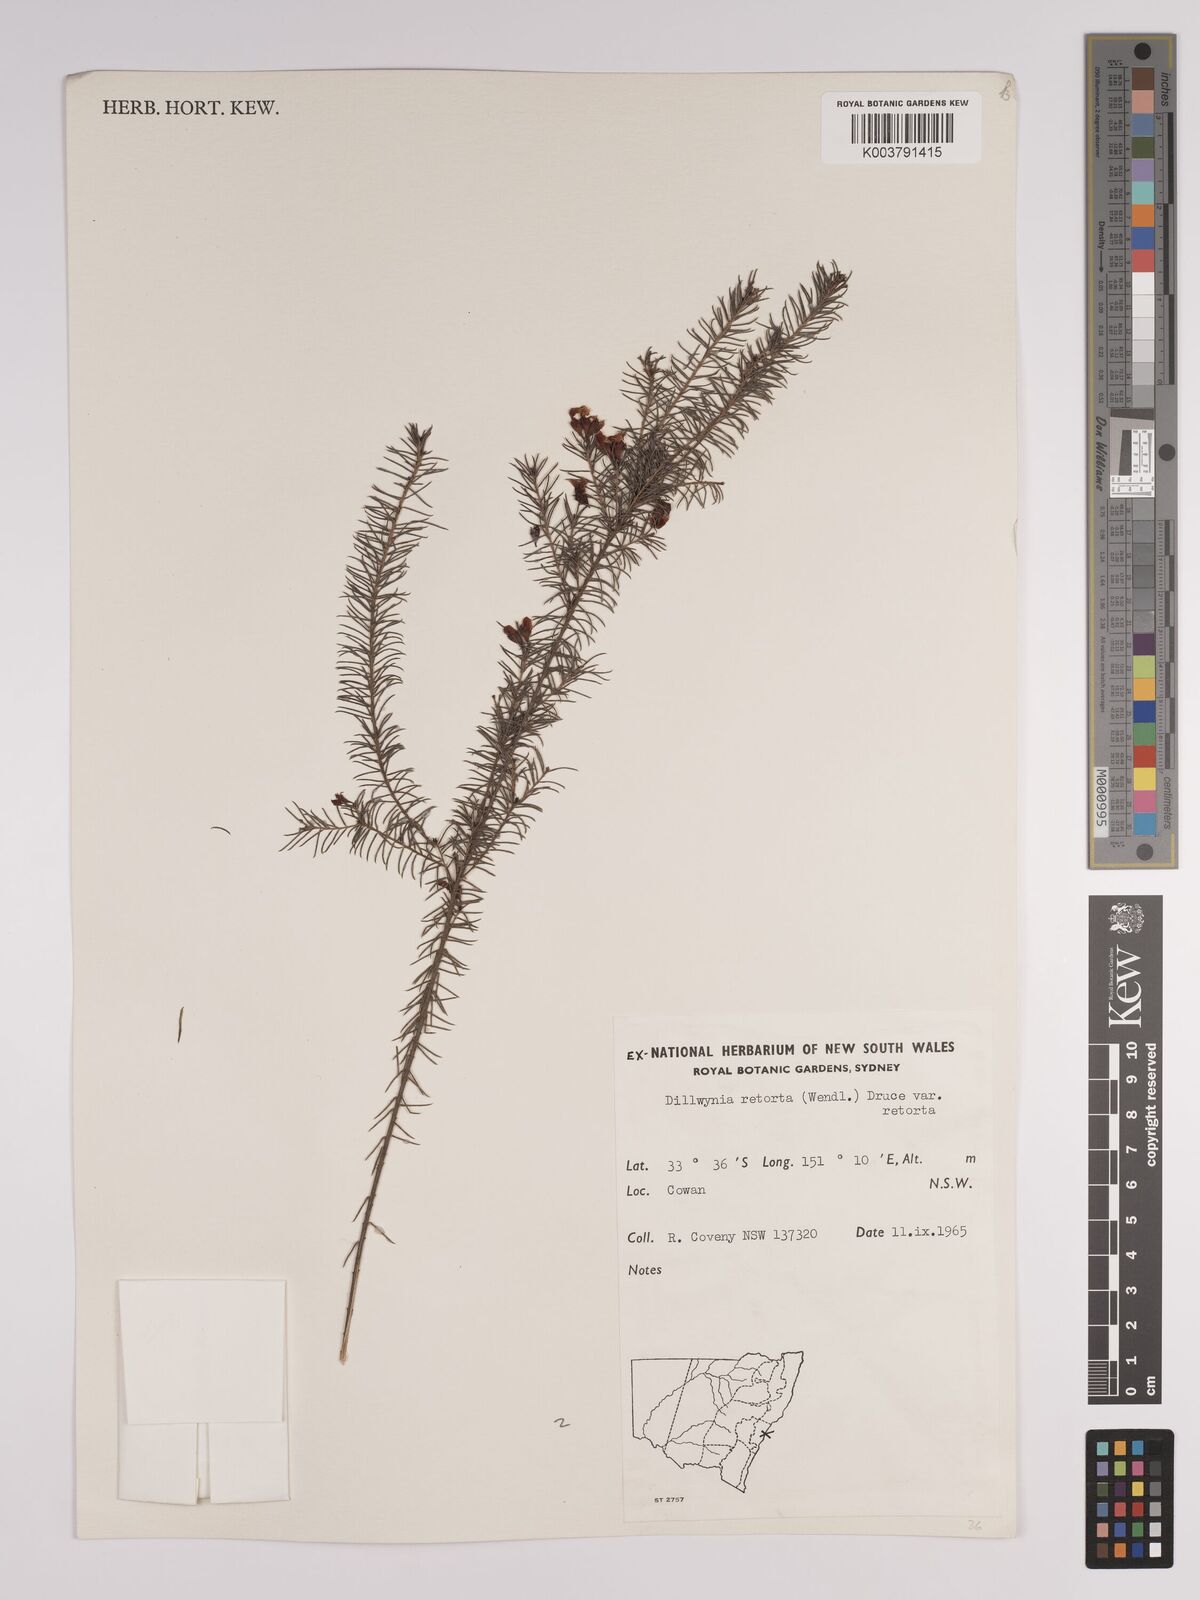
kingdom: Plantae
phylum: Tracheophyta
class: Magnoliopsida
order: Fabales
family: Fabaceae
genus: Dillwynia
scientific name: Dillwynia retorta
